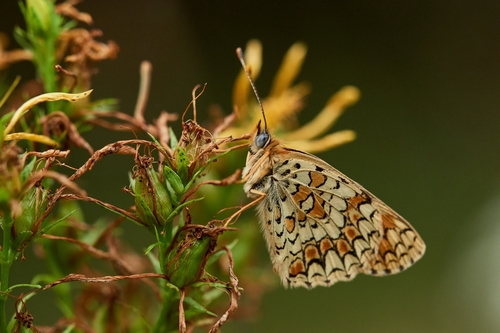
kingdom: Animalia
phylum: Arthropoda
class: Insecta
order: Lepidoptera
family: Nymphalidae
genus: Melitaea
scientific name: Melitaea phoebe
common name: Knapweed fritillary
